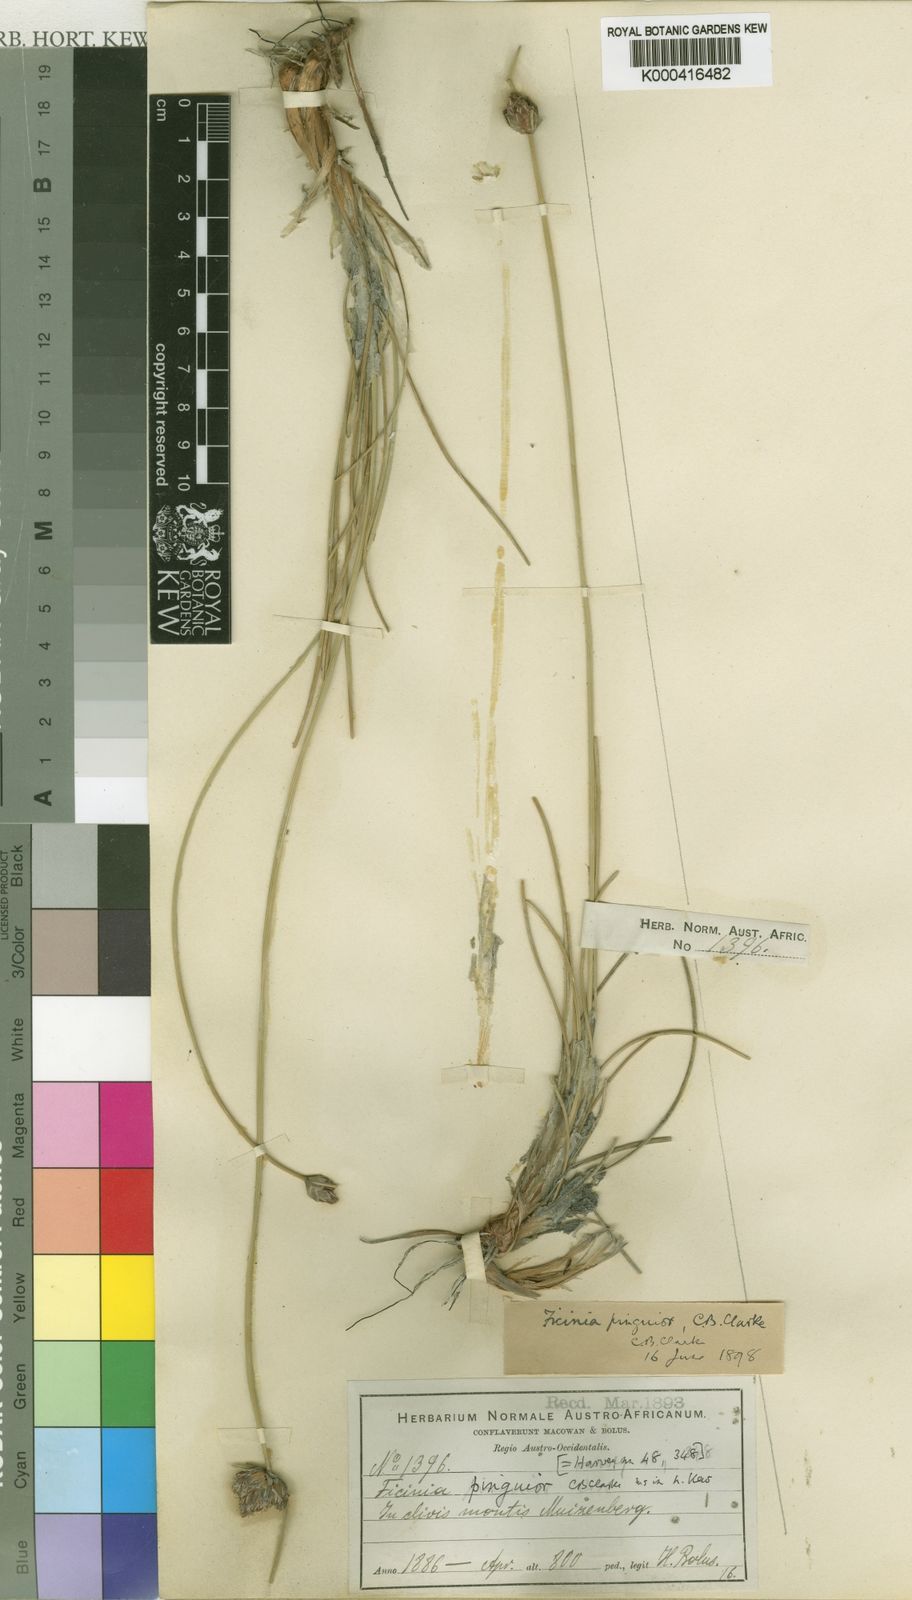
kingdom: Plantae
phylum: Tracheophyta
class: Liliopsida
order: Poales
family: Cyperaceae
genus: Ficinia
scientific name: Ficinia pinguior
